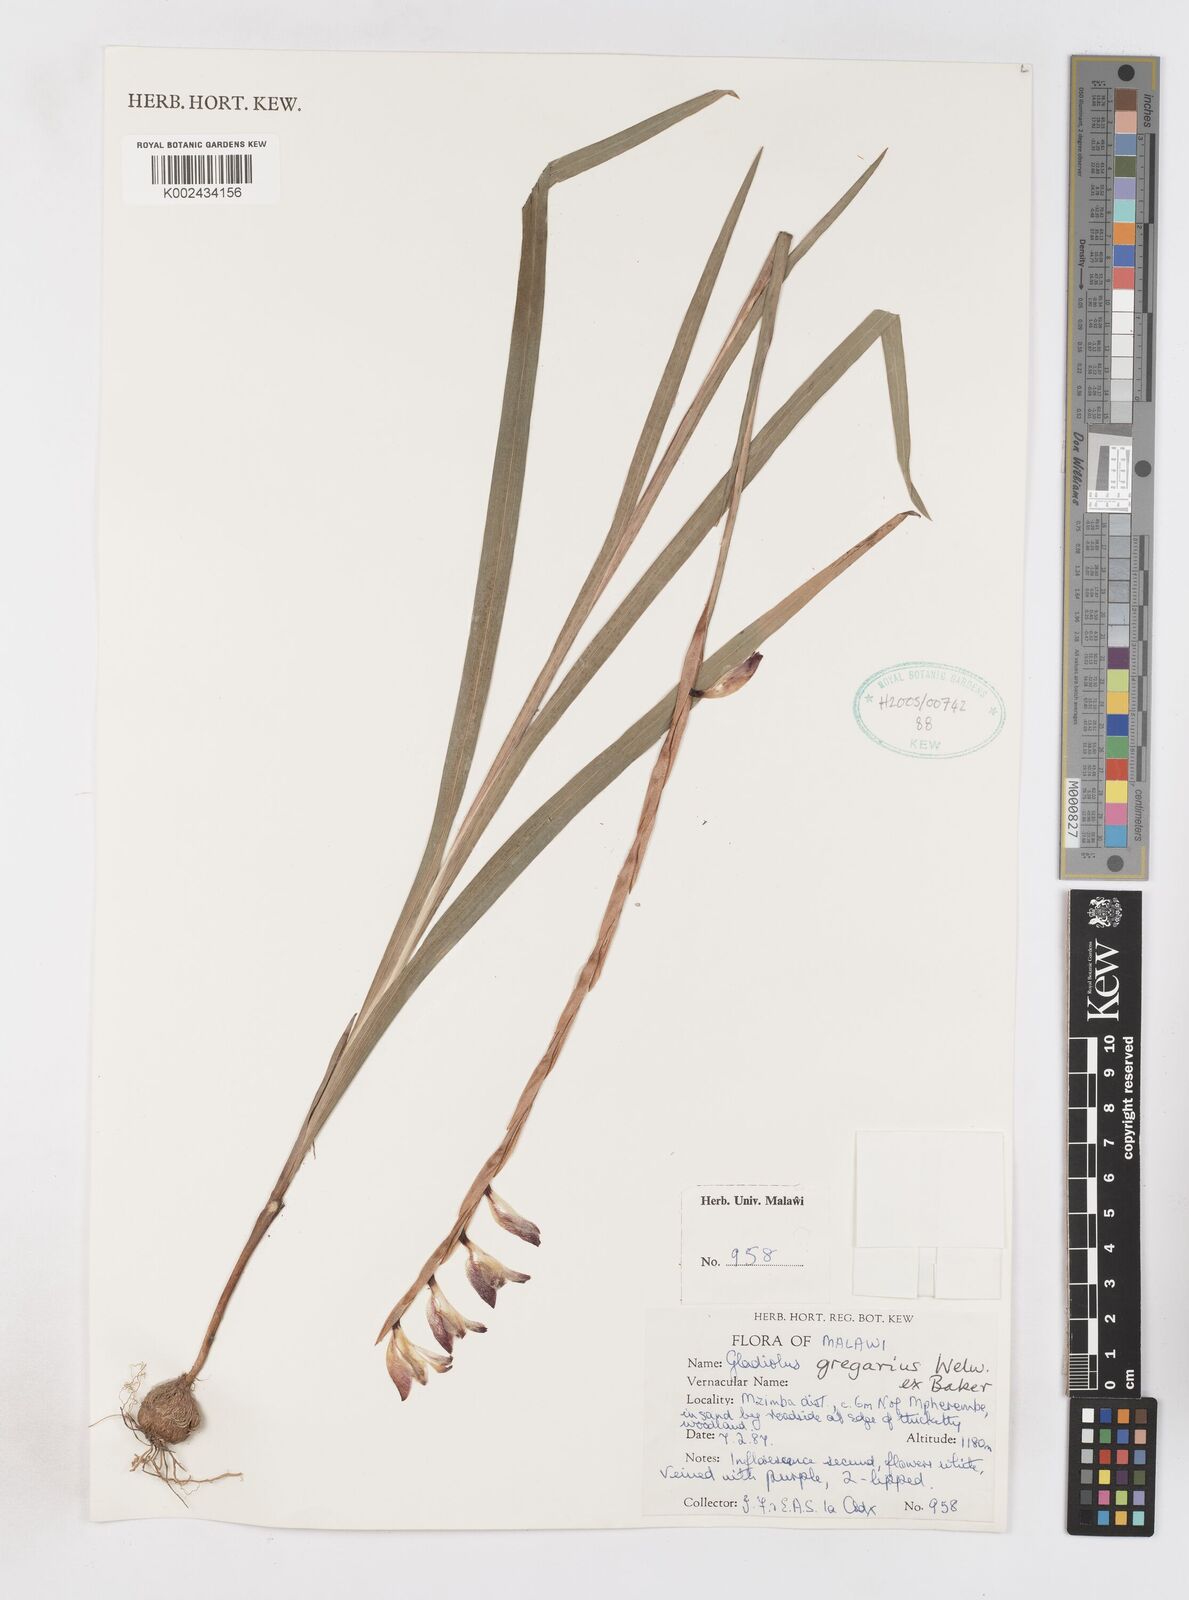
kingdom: Plantae
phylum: Tracheophyta
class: Liliopsida
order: Asparagales
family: Iridaceae
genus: Gladiolus
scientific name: Gladiolus gregarius
